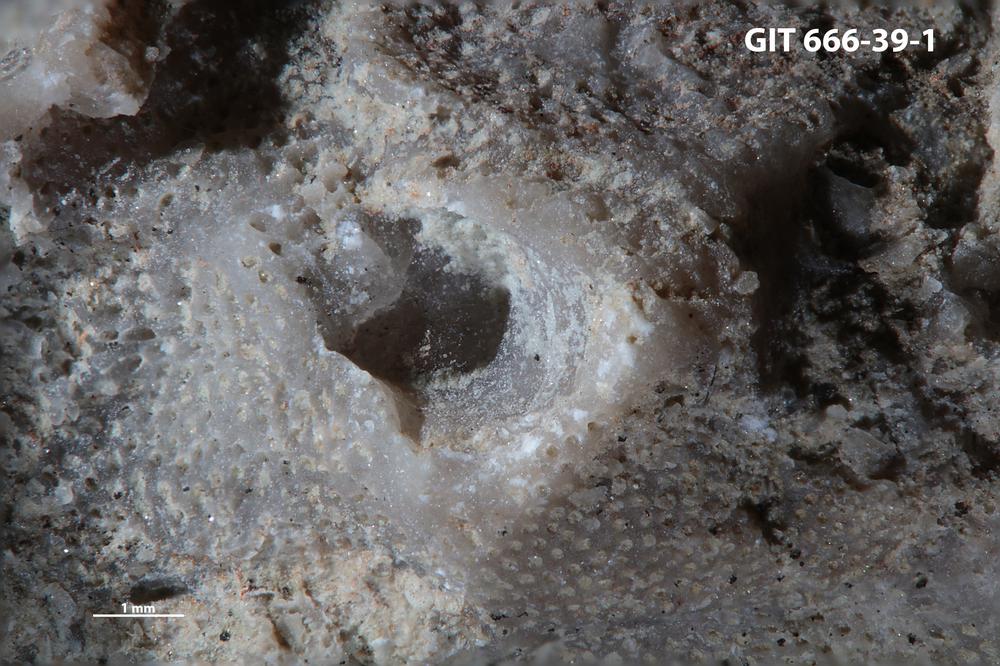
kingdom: Animalia
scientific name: Animalia
